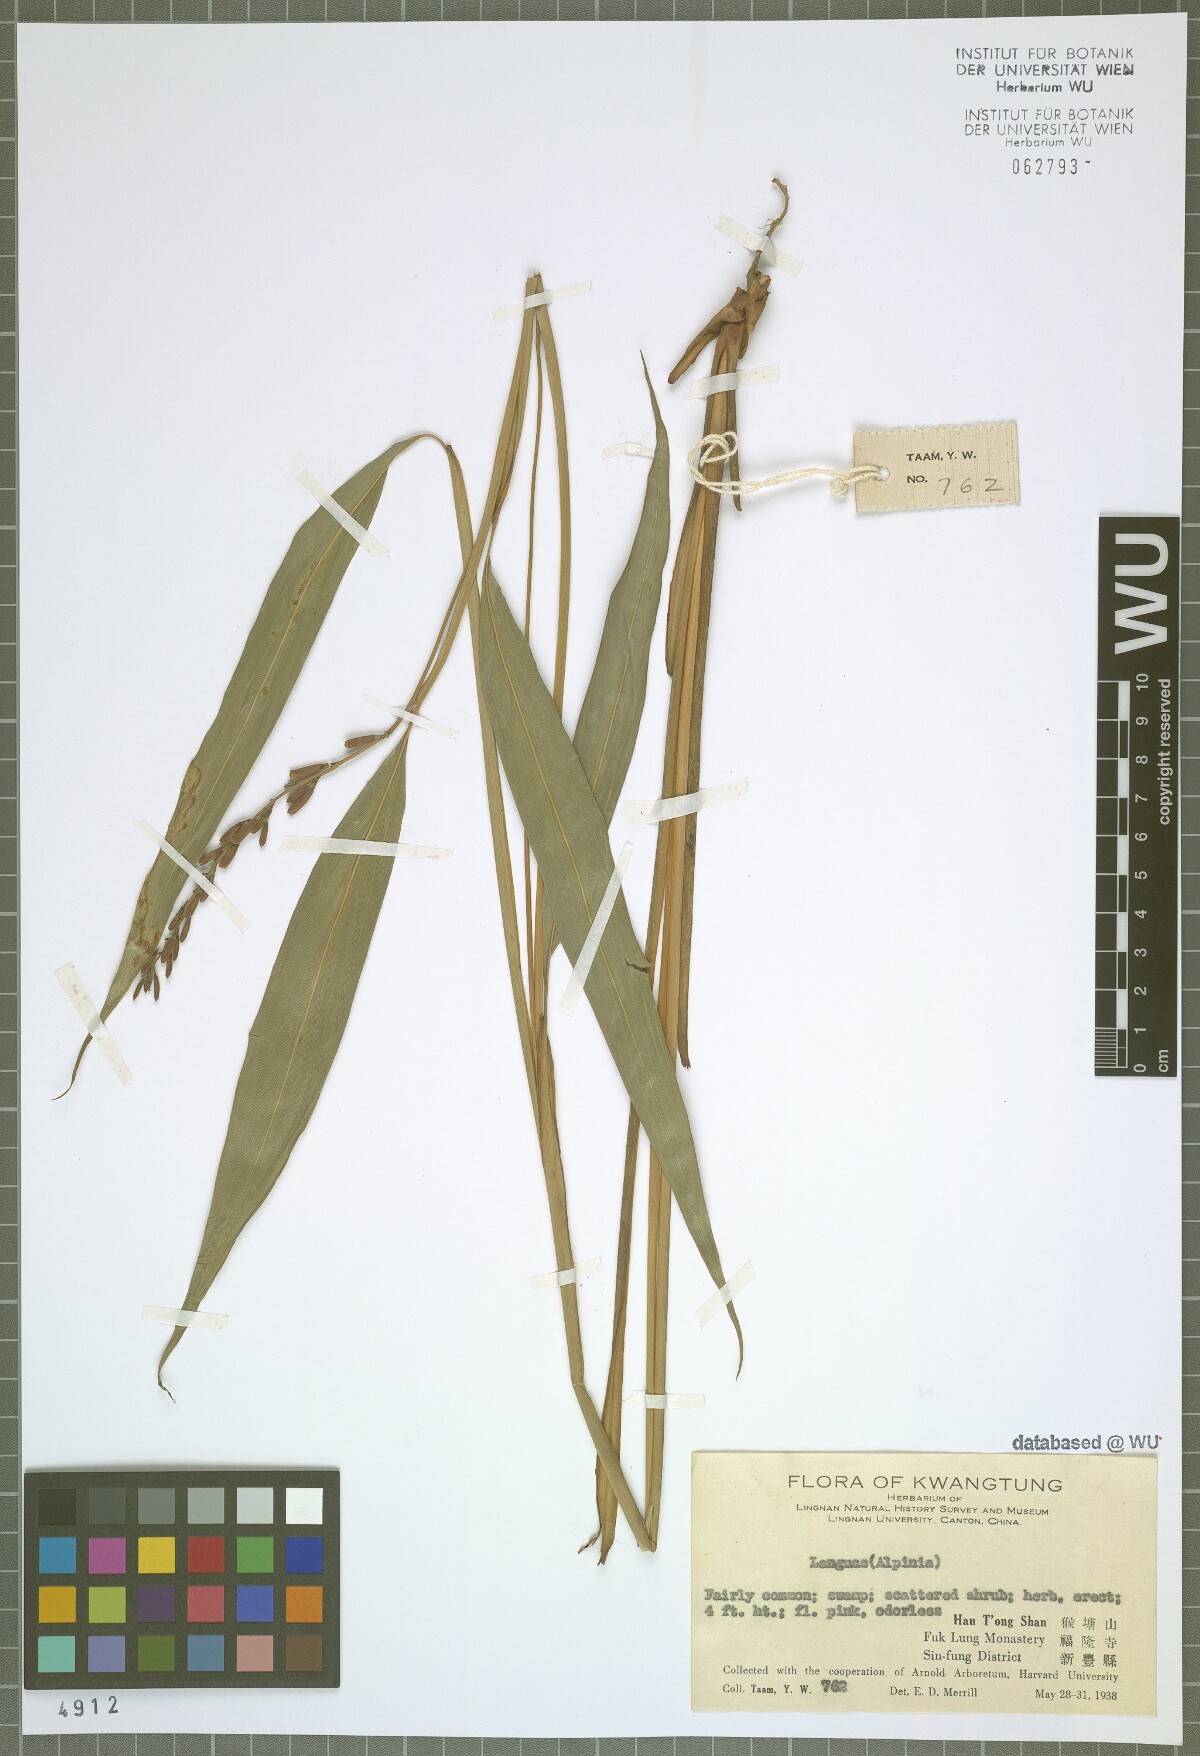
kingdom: Plantae
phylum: Tracheophyta
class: Liliopsida
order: Zingiberales
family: Zingiberaceae
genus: Alpinia
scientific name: Alpinia
